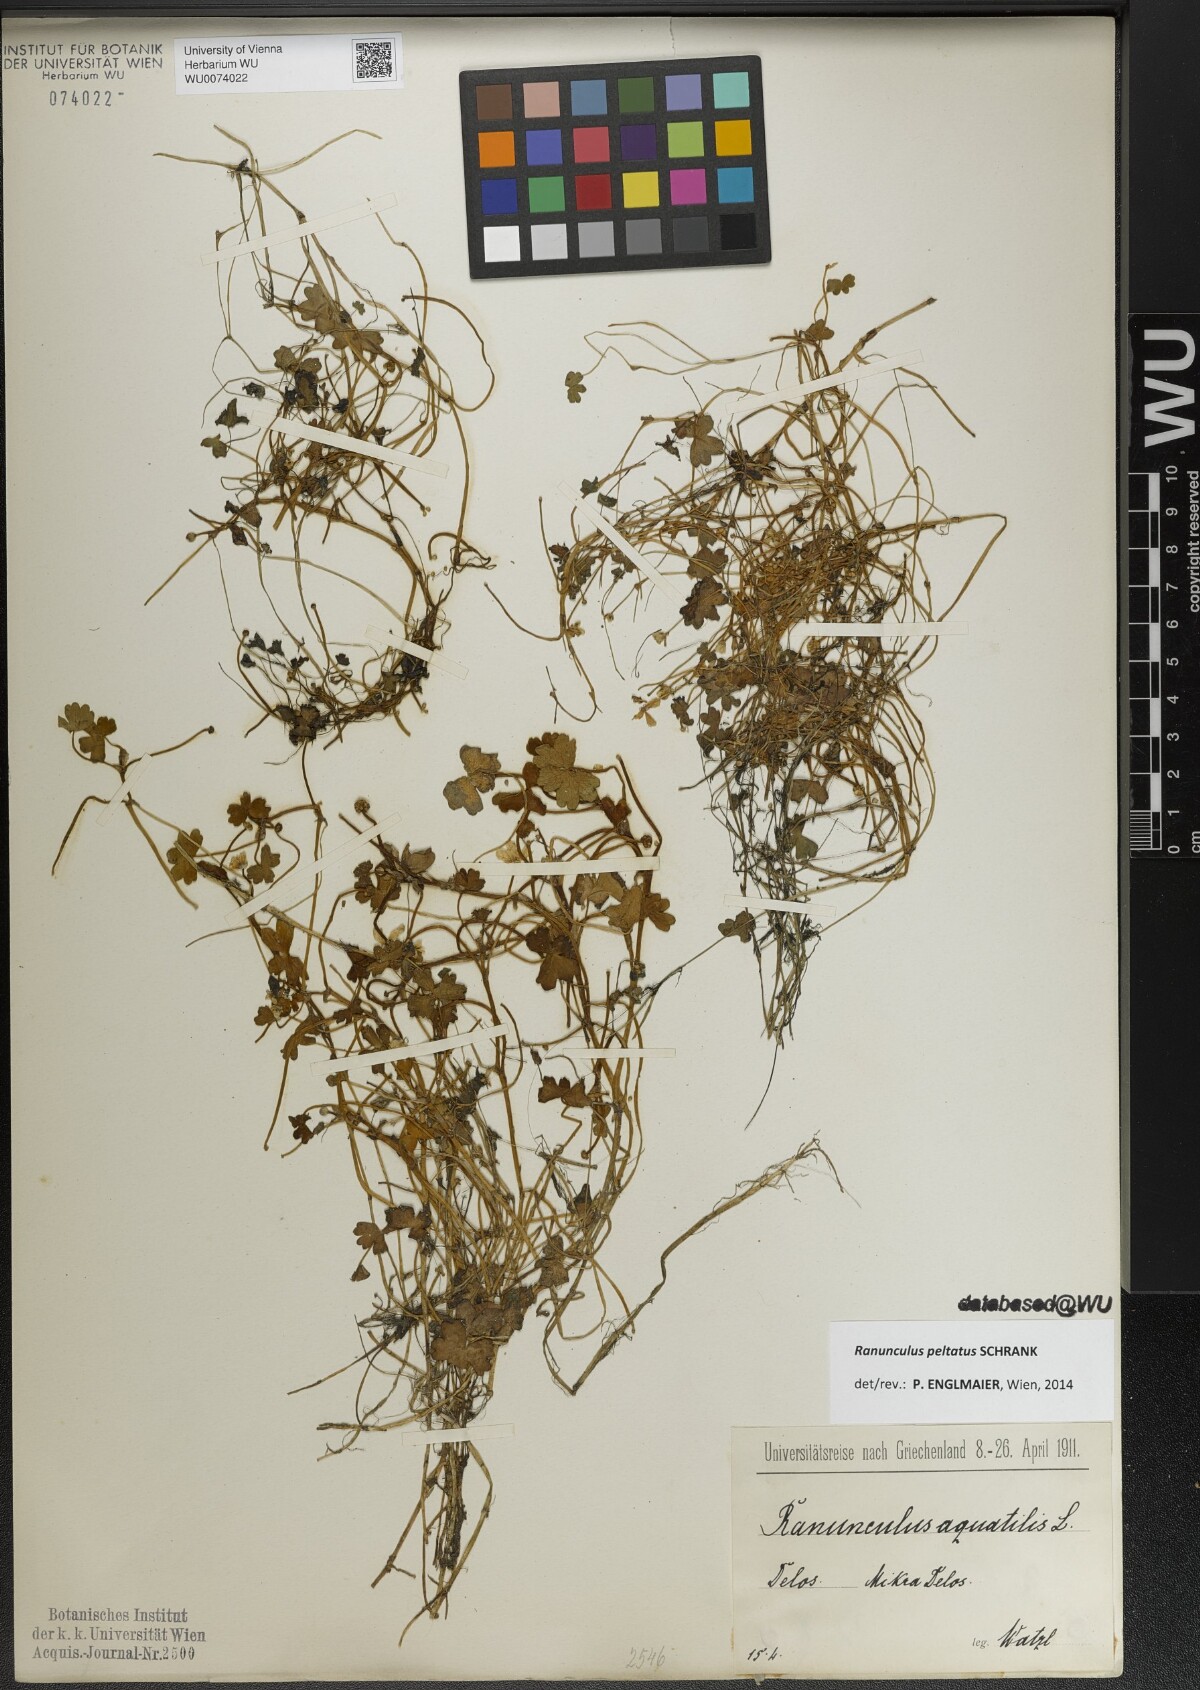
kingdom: Plantae
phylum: Tracheophyta
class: Magnoliopsida
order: Ranunculales
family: Ranunculaceae
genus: Ranunculus
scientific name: Ranunculus peltatus
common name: Pond water-crowfoot
